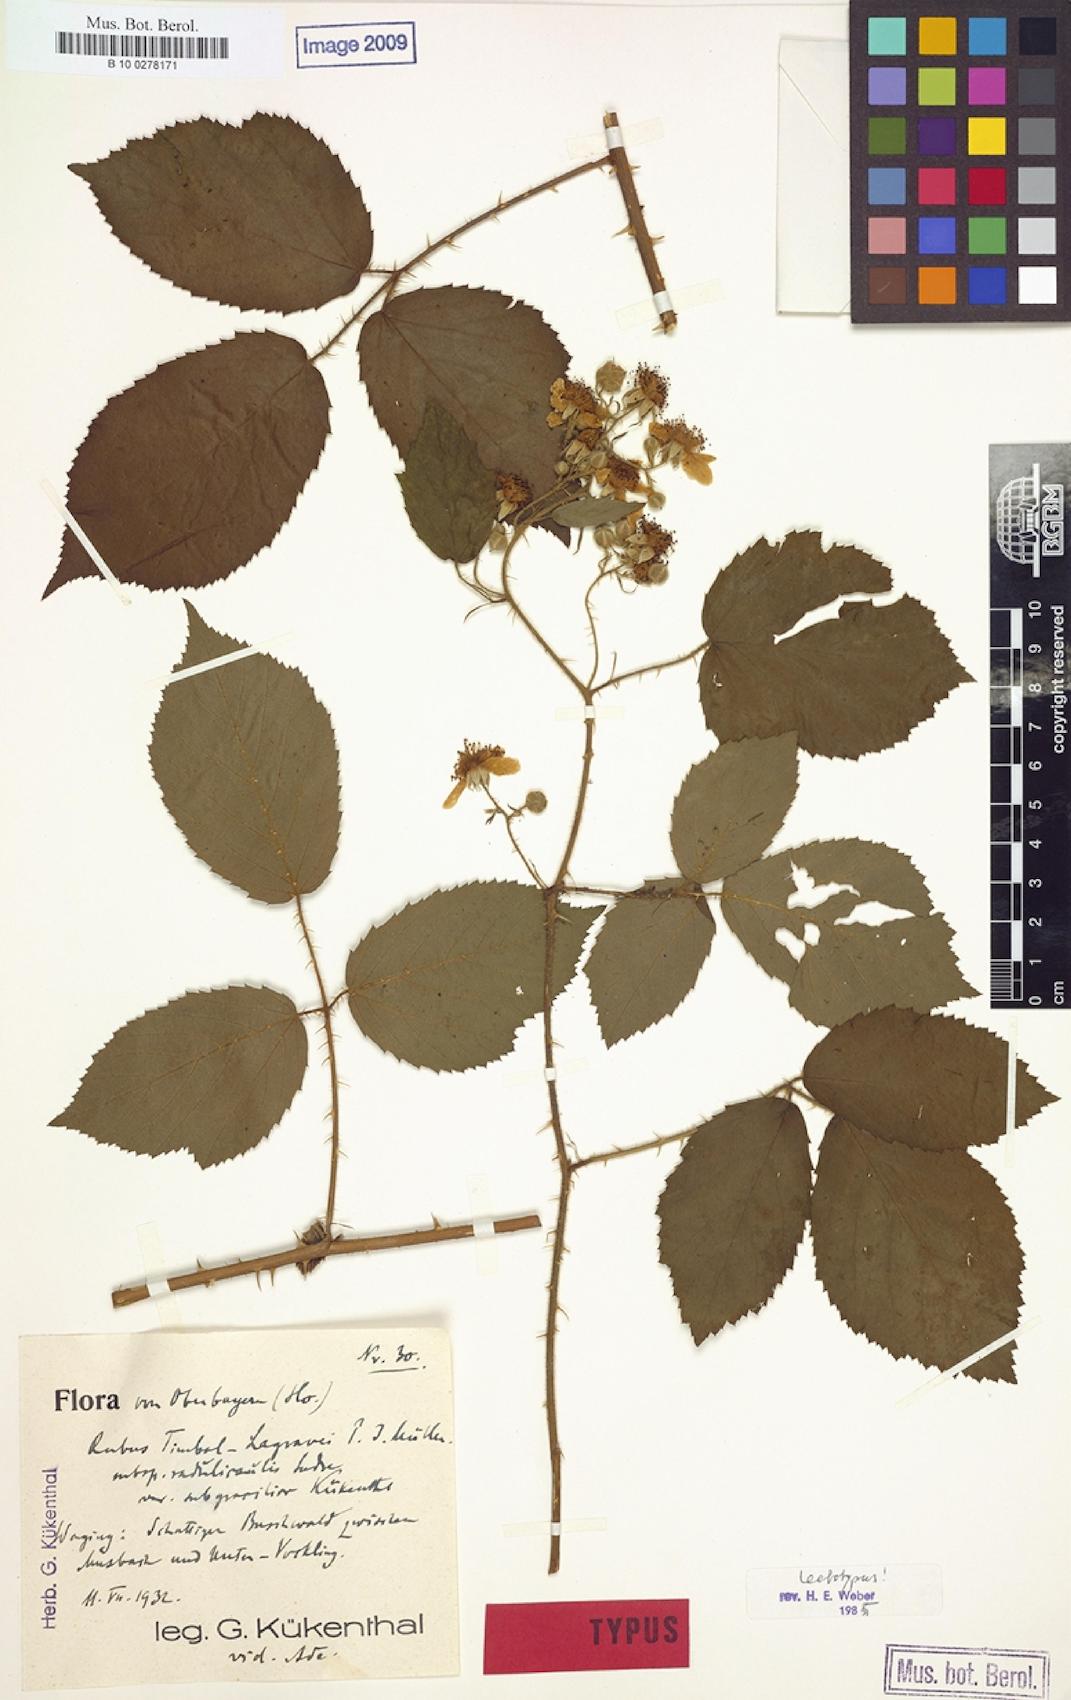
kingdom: Plantae
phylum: Tracheophyta
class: Magnoliopsida
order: Rosales
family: Rosaceae
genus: Rubus
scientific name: Rubus platycephalus
